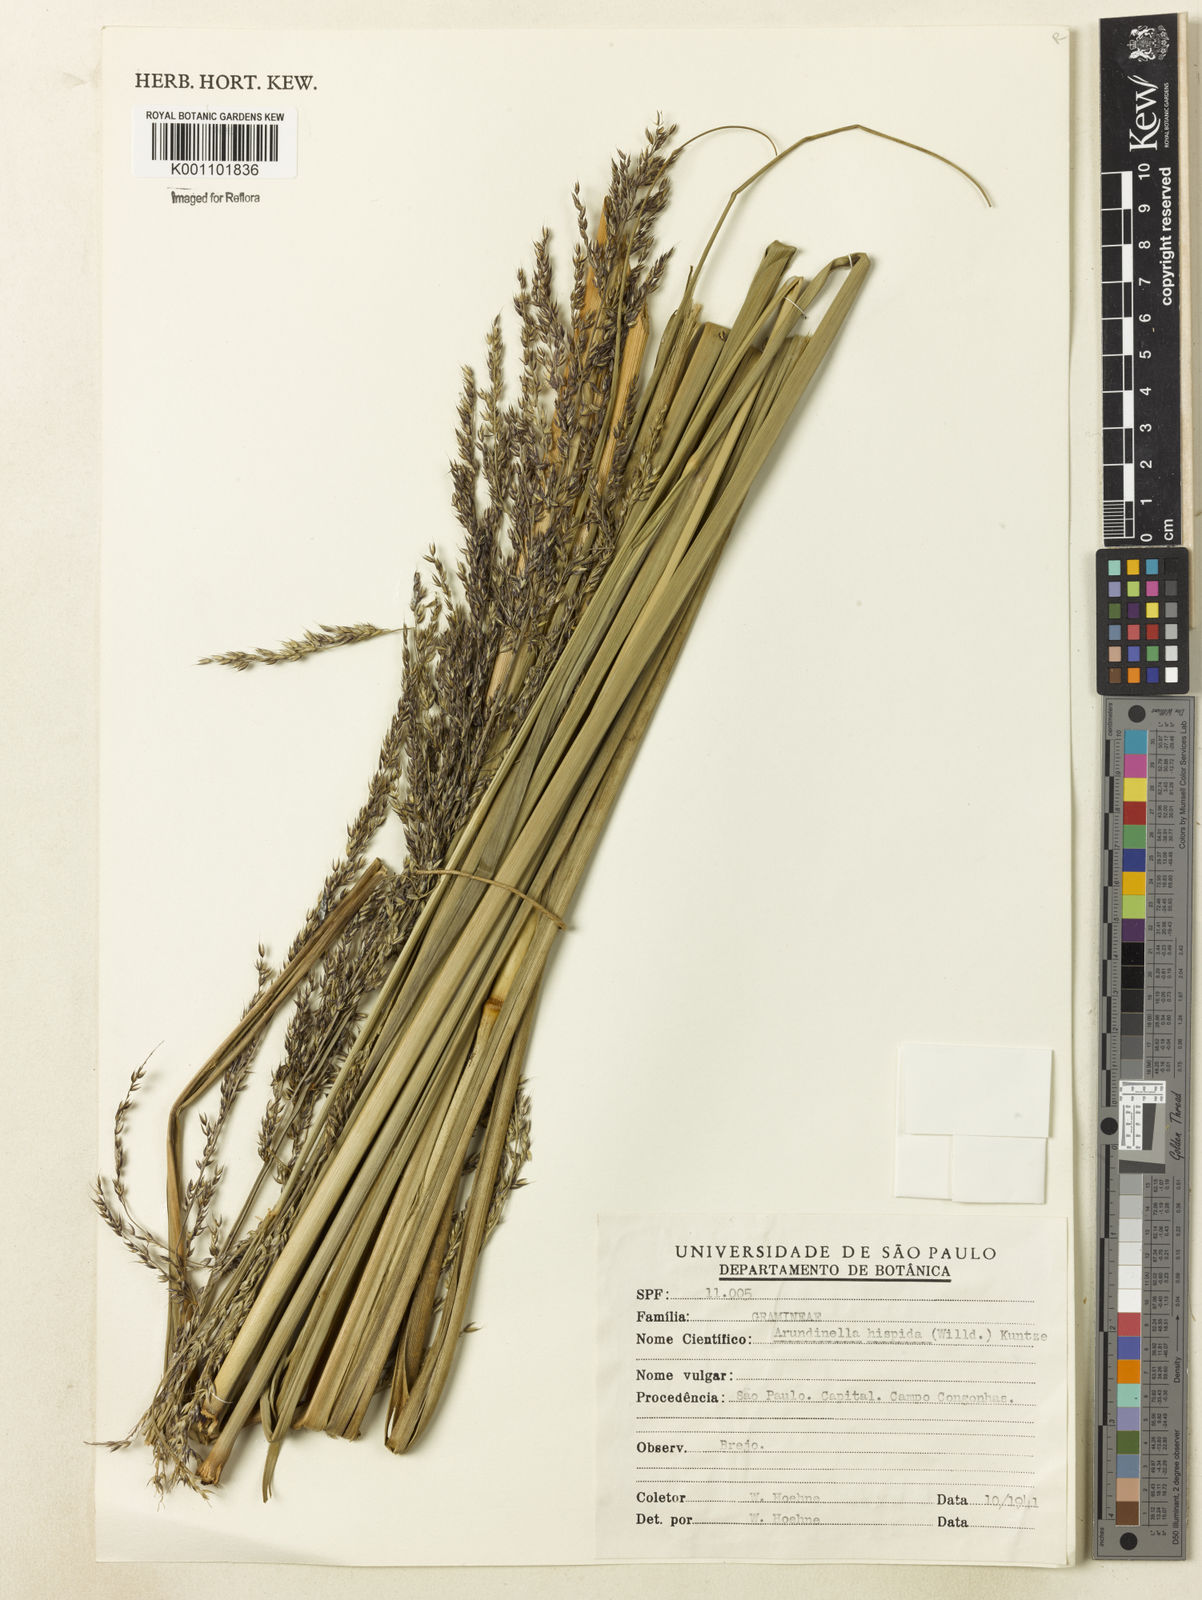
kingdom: Plantae
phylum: Tracheophyta
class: Liliopsida
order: Poales
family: Poaceae
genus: Panicum
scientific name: Panicum
